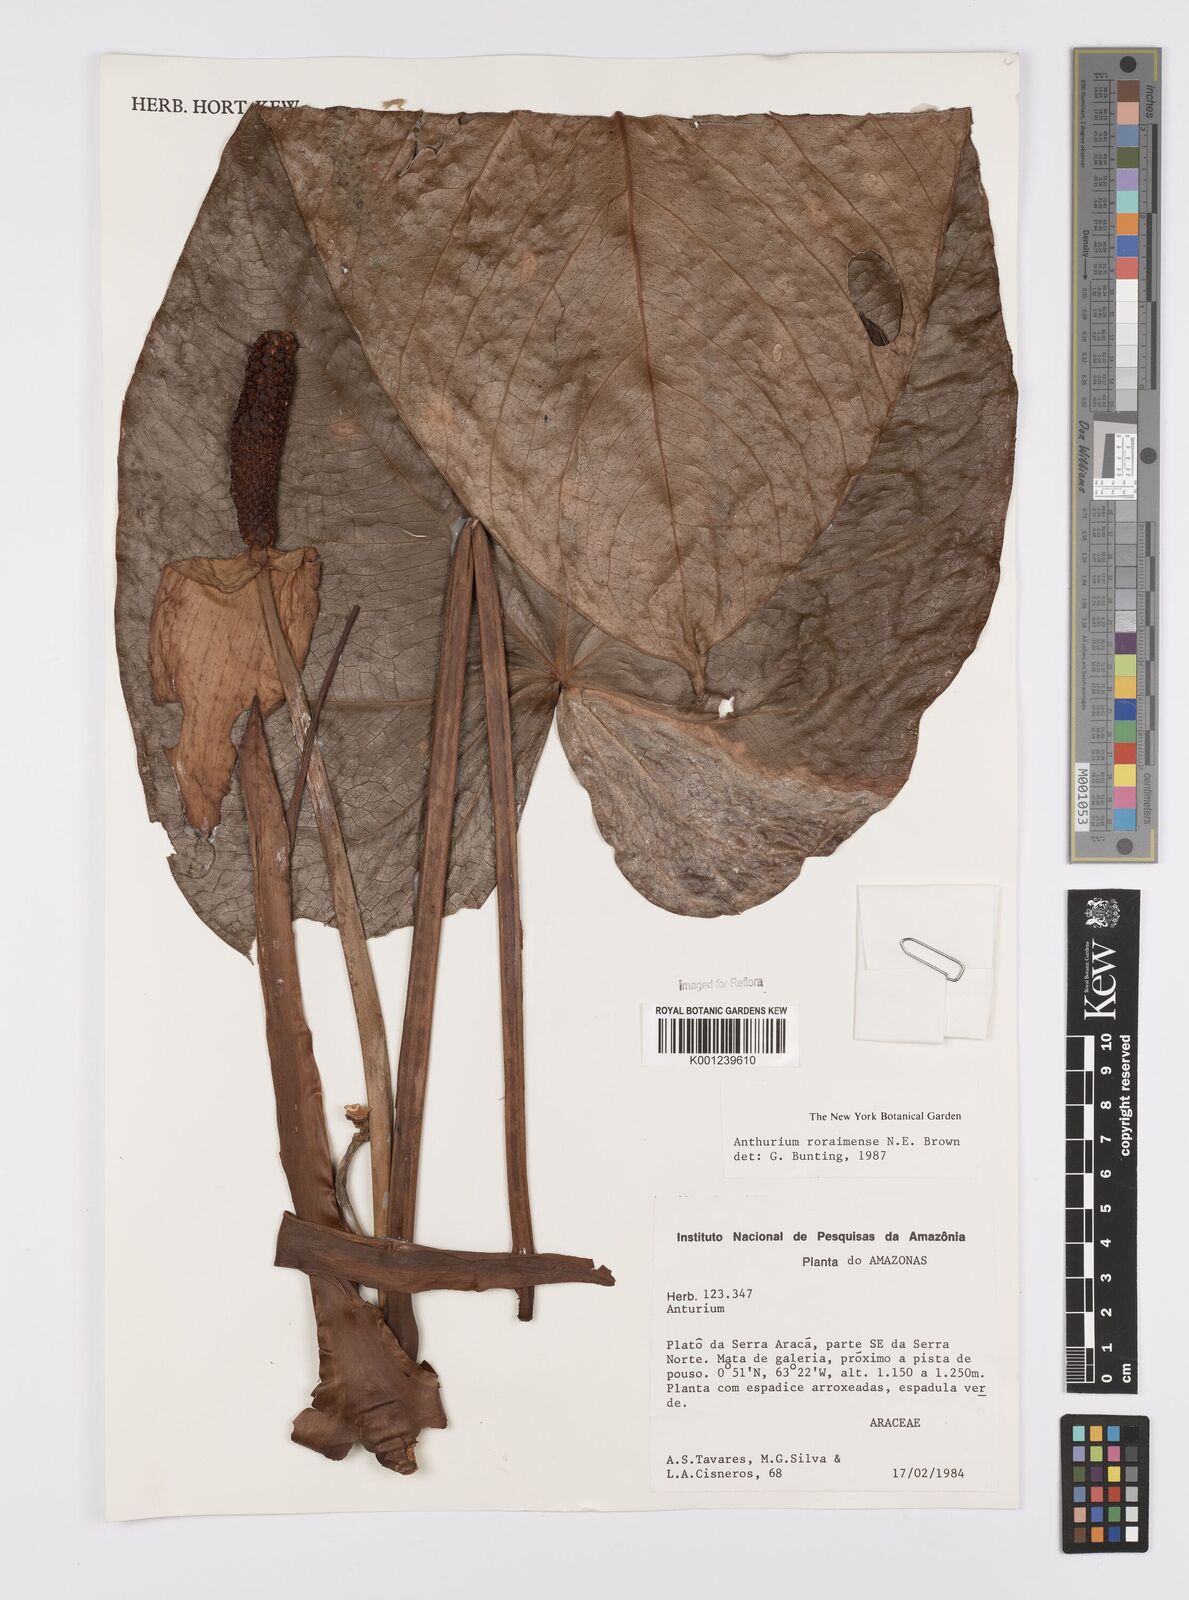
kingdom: Plantae
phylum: Tracheophyta
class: Liliopsida
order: Alismatales
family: Araceae
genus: Anthurium
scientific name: Anthurium roraimense
